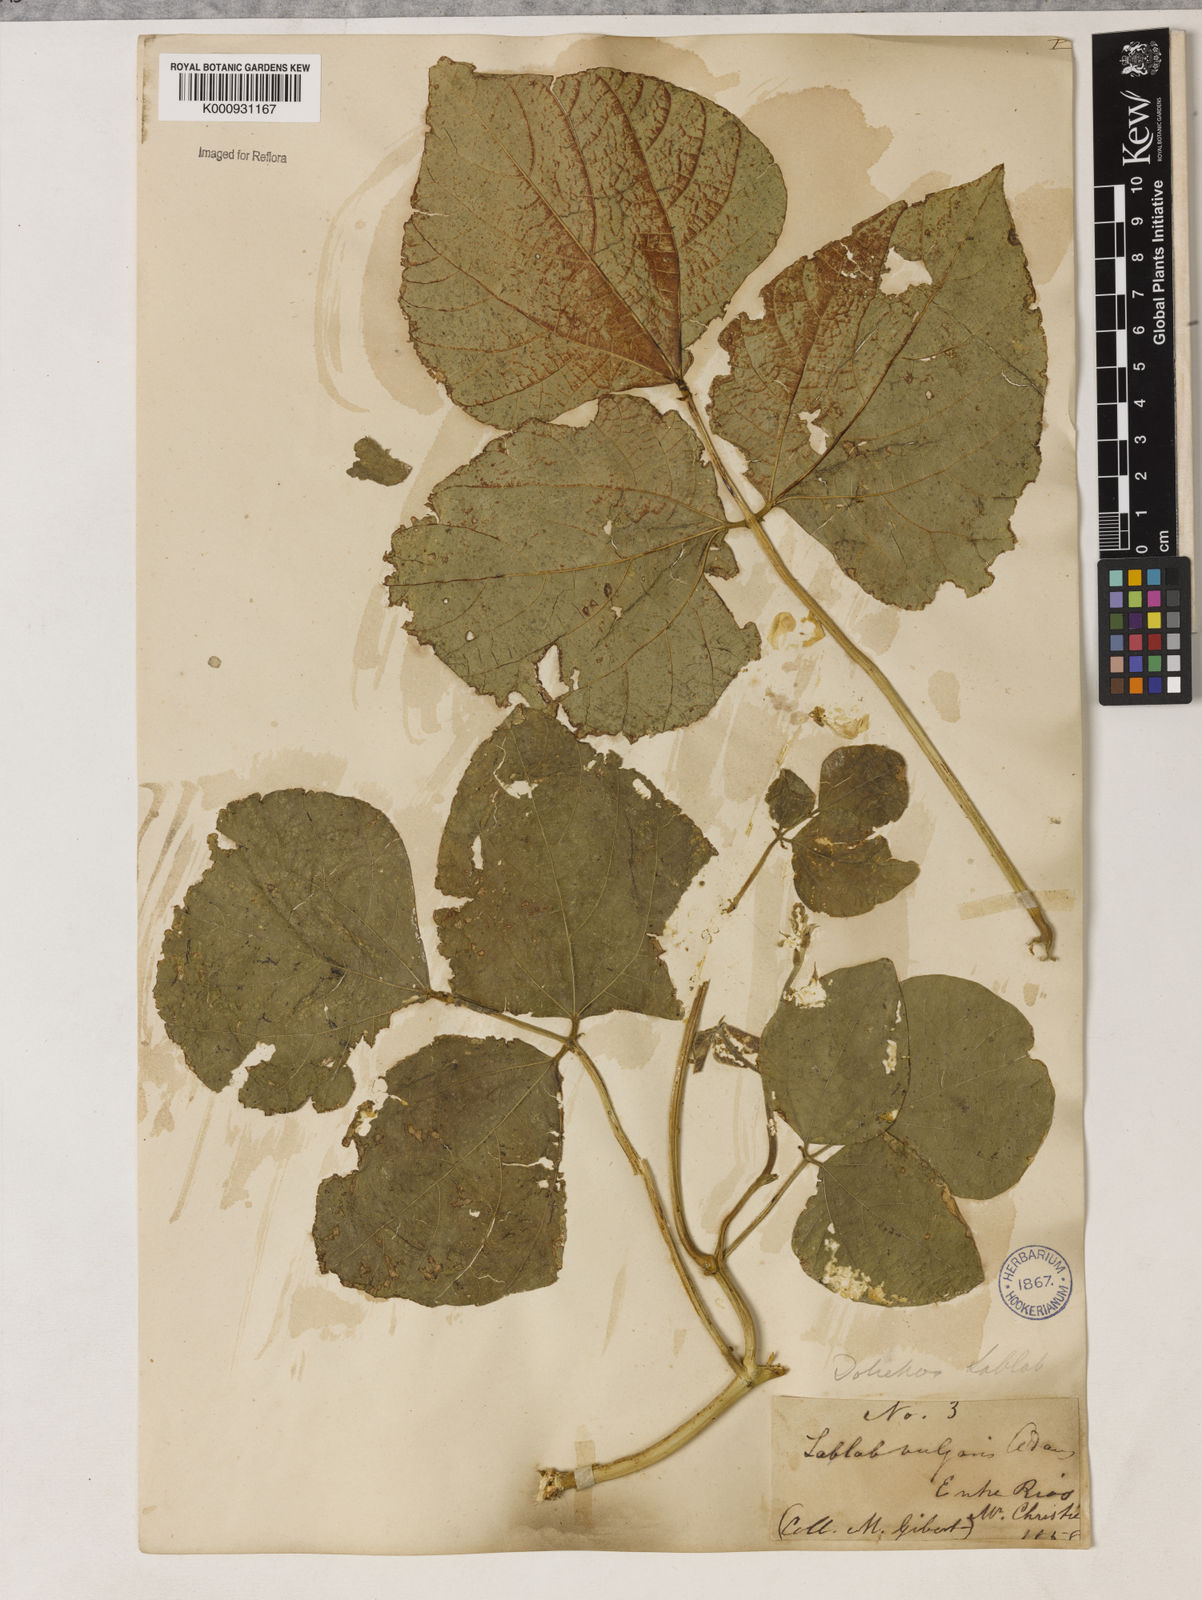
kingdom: Plantae
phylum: Tracheophyta
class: Magnoliopsida
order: Fabales
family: Fabaceae
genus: Lablab
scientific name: Lablab purpureus
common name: Lablab-bean
